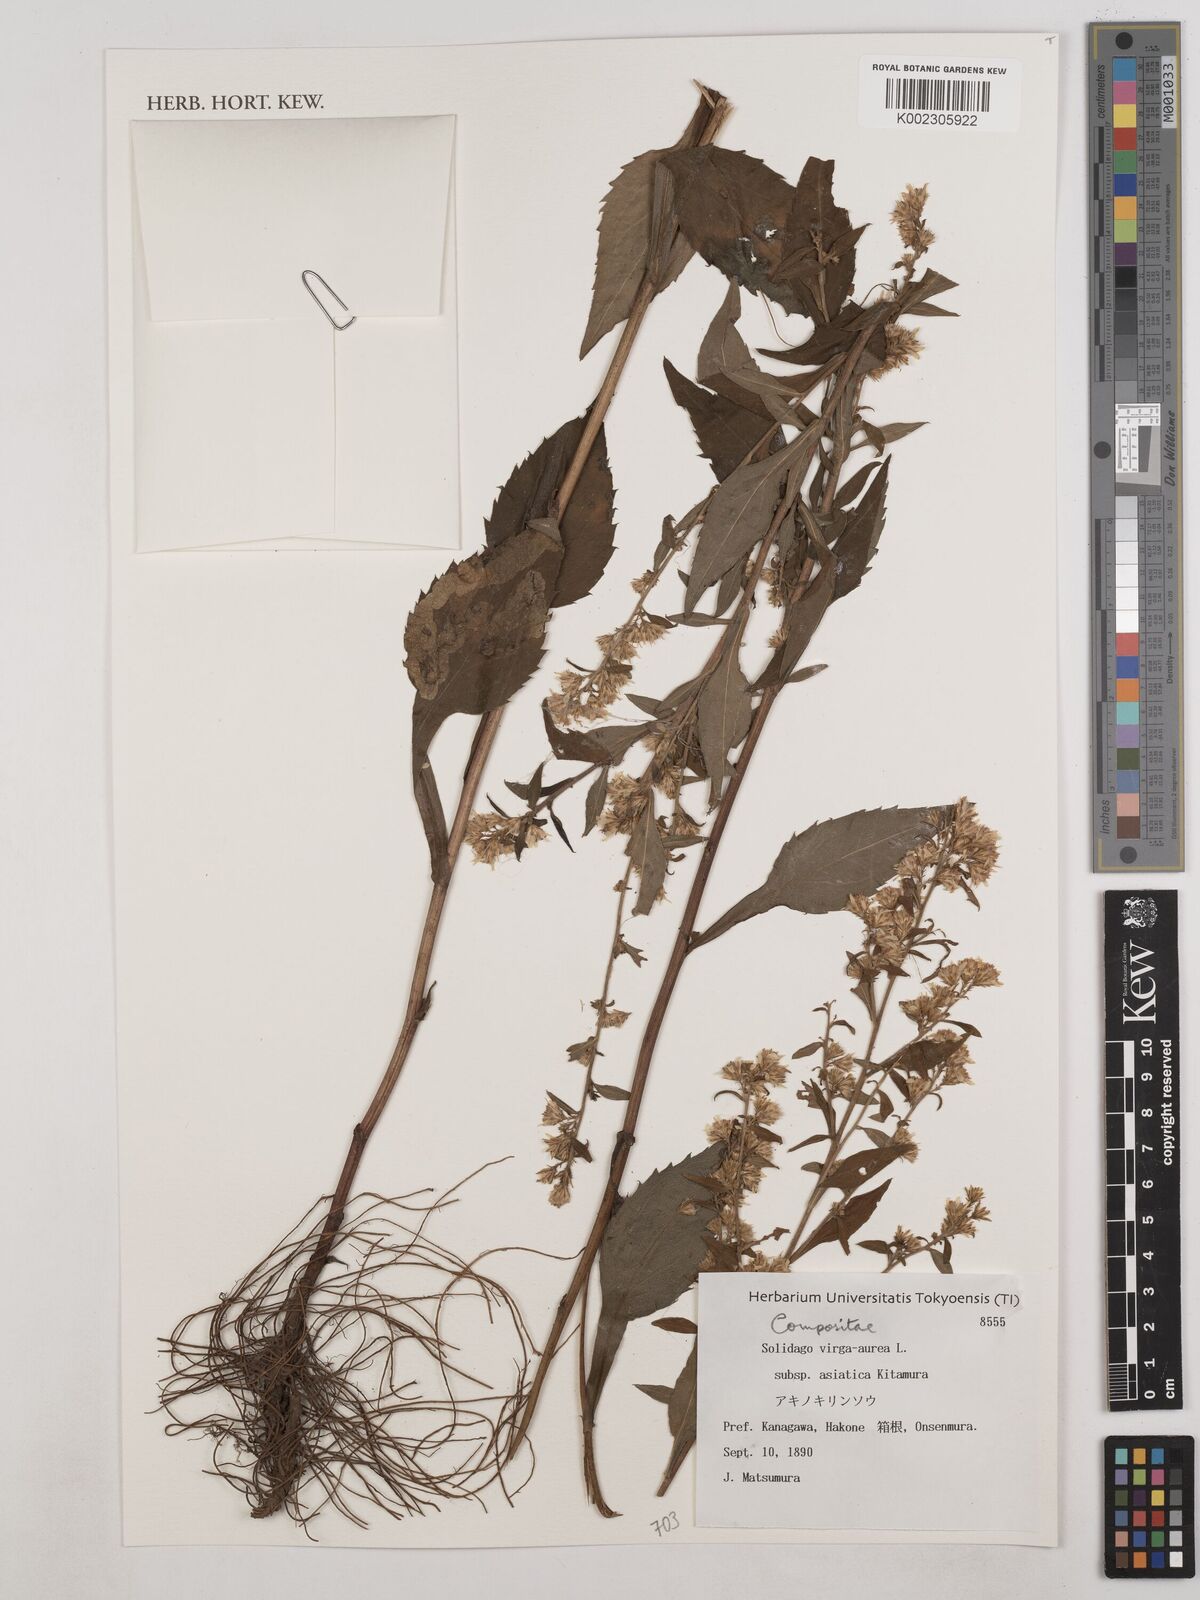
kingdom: Plantae
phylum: Tracheophyta
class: Magnoliopsida
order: Asterales
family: Asteraceae
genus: Solidago
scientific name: Solidago virgaurea
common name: Goldenrod
